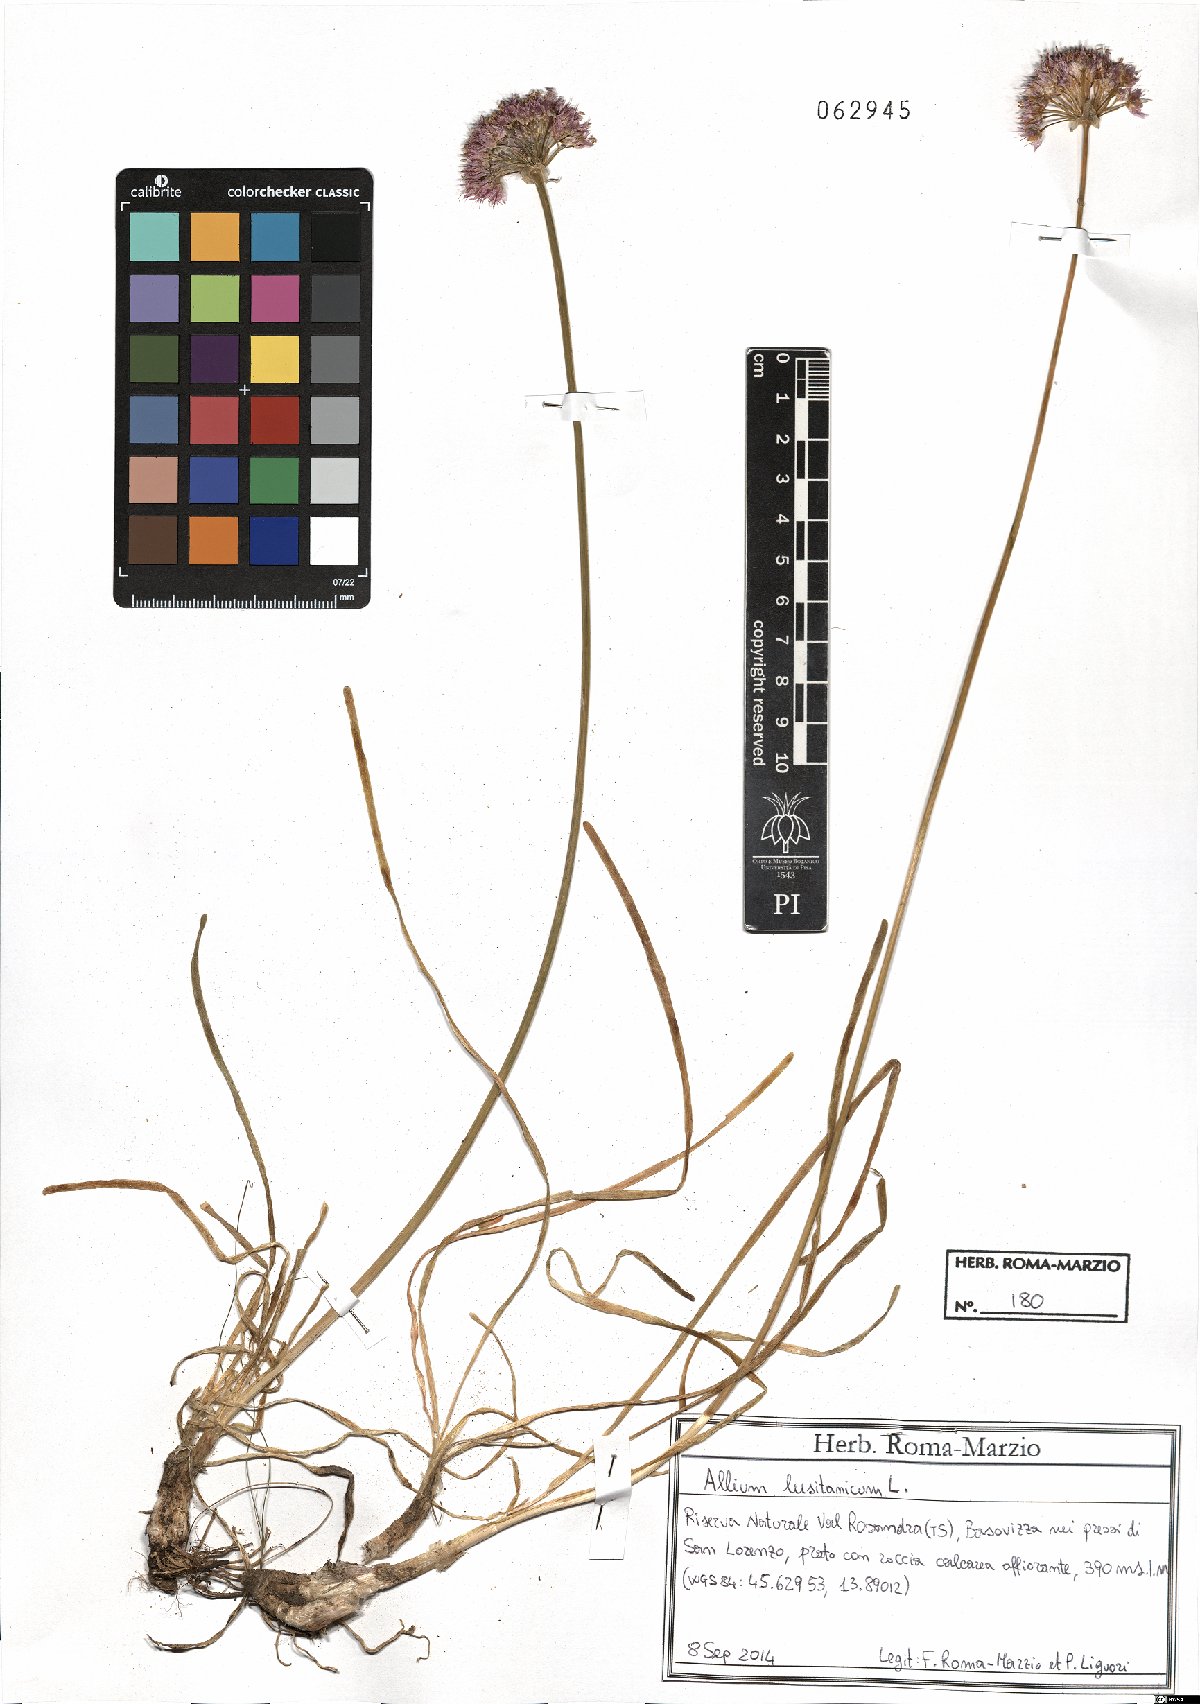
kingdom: Plantae
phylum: Tracheophyta
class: Liliopsida
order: Asparagales
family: Amaryllidaceae
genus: Allium
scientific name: Allium lusitanicum
